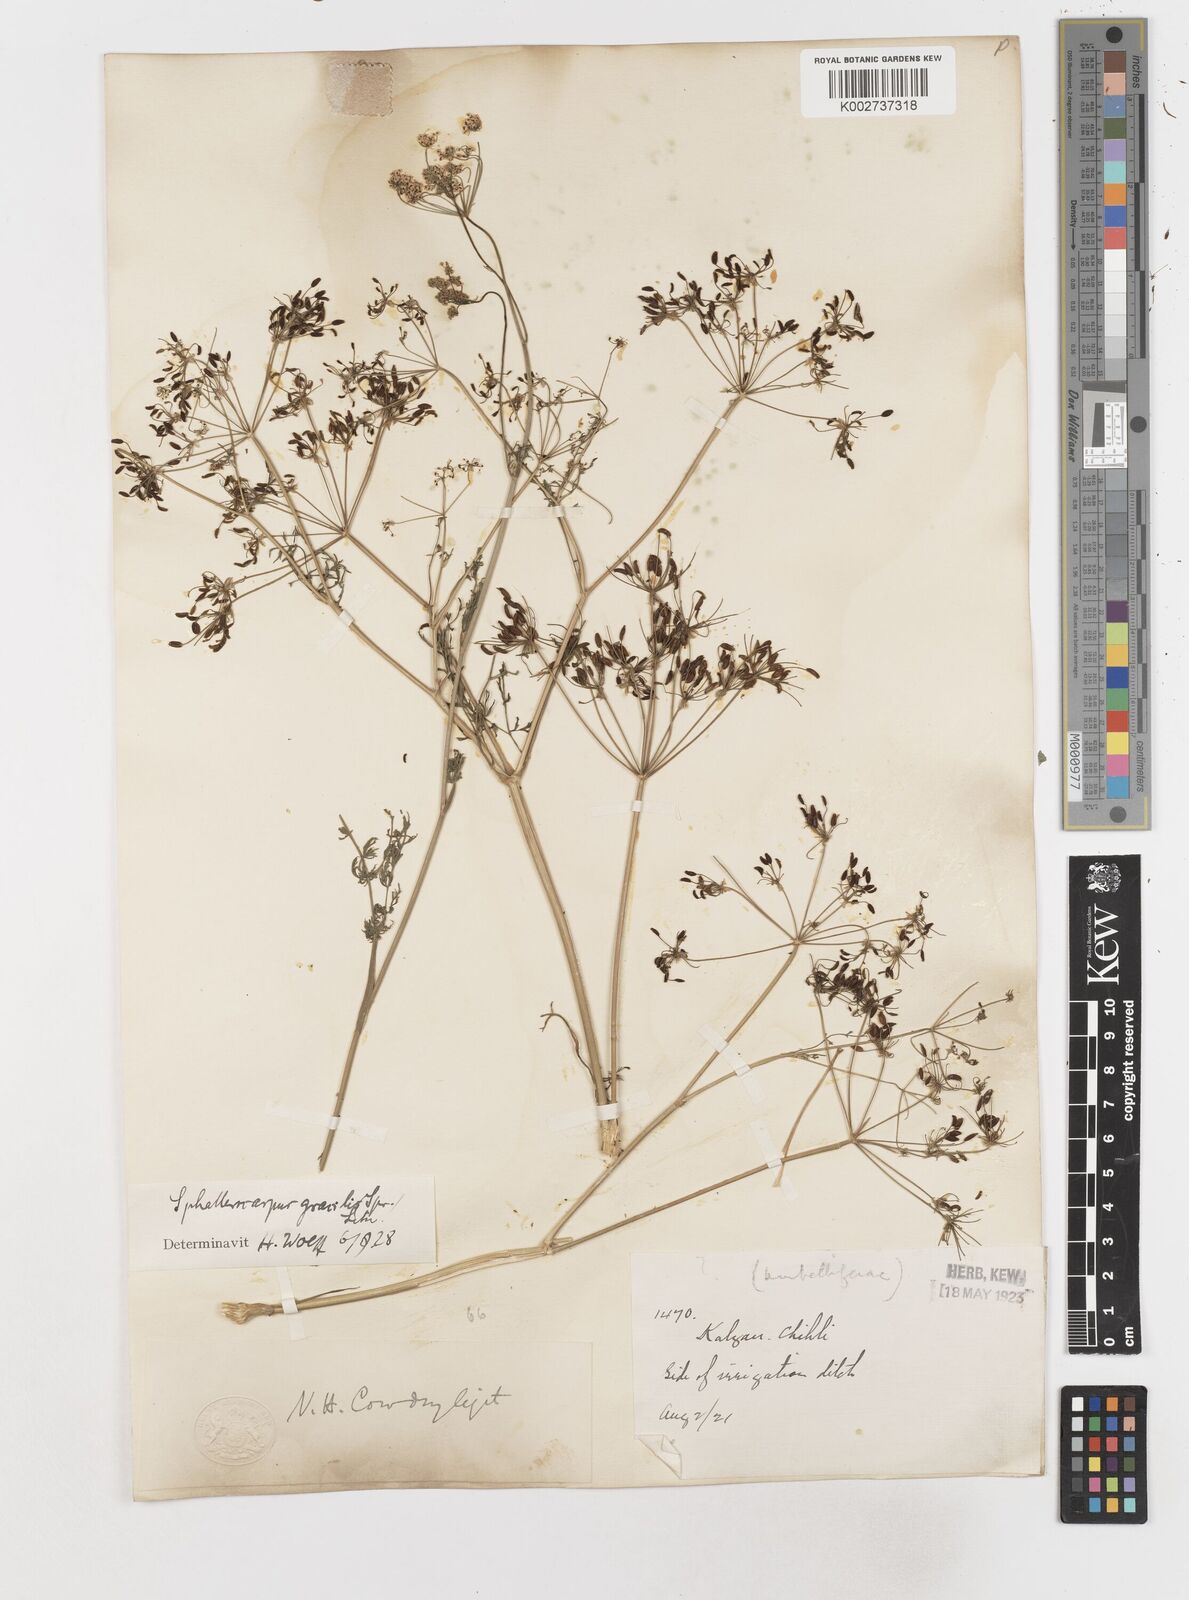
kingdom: Plantae
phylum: Tracheophyta
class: Magnoliopsida
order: Apiales
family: Apiaceae
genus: Sphallerocarpus
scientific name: Sphallerocarpus gracilis
